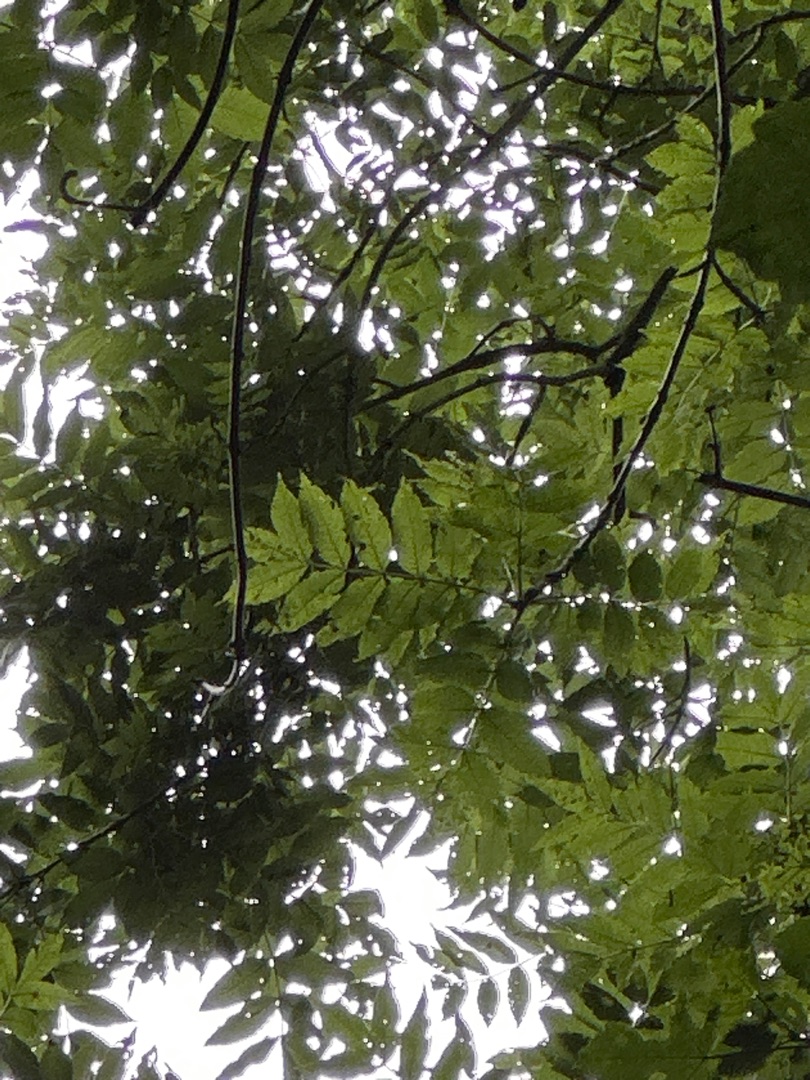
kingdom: Plantae
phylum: Tracheophyta
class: Magnoliopsida
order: Lamiales
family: Oleaceae
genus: Fraxinus
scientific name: Fraxinus excelsior
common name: Ask
